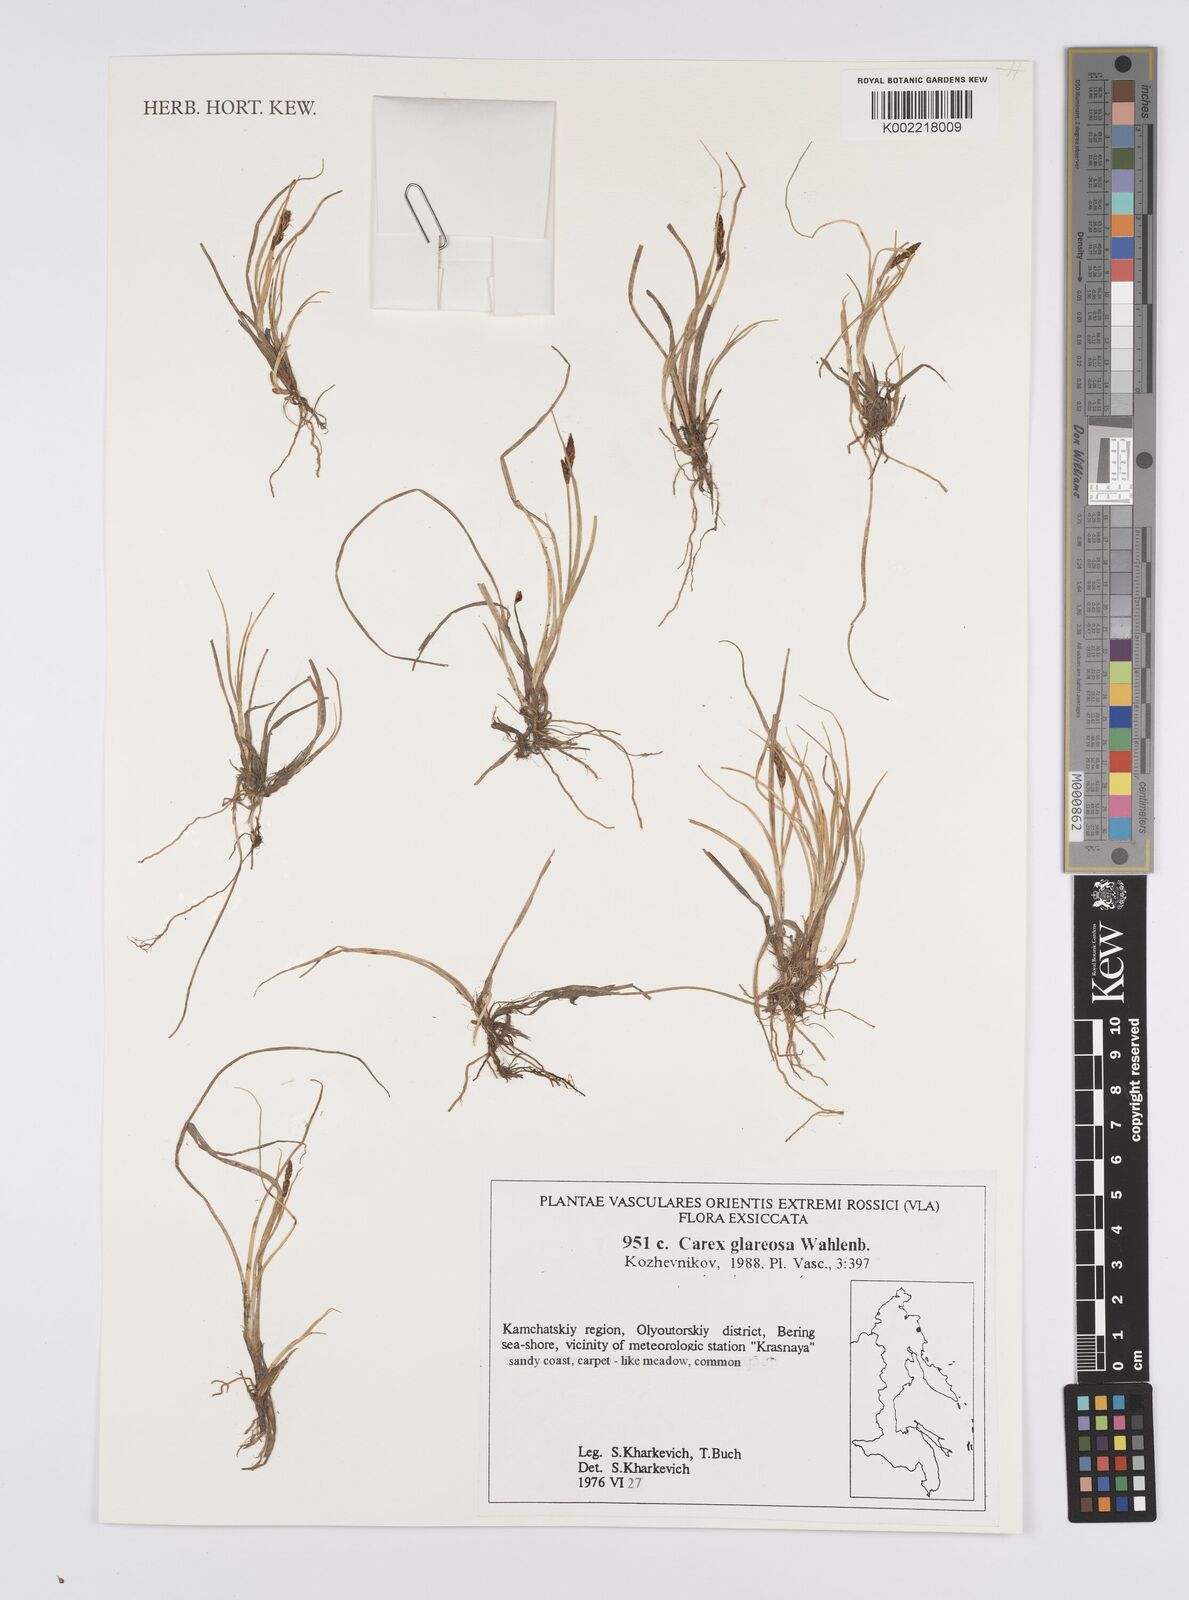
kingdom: Plantae
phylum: Tracheophyta
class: Liliopsida
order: Poales
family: Cyperaceae
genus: Carex
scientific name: Carex glareosa
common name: Clustered sedge
